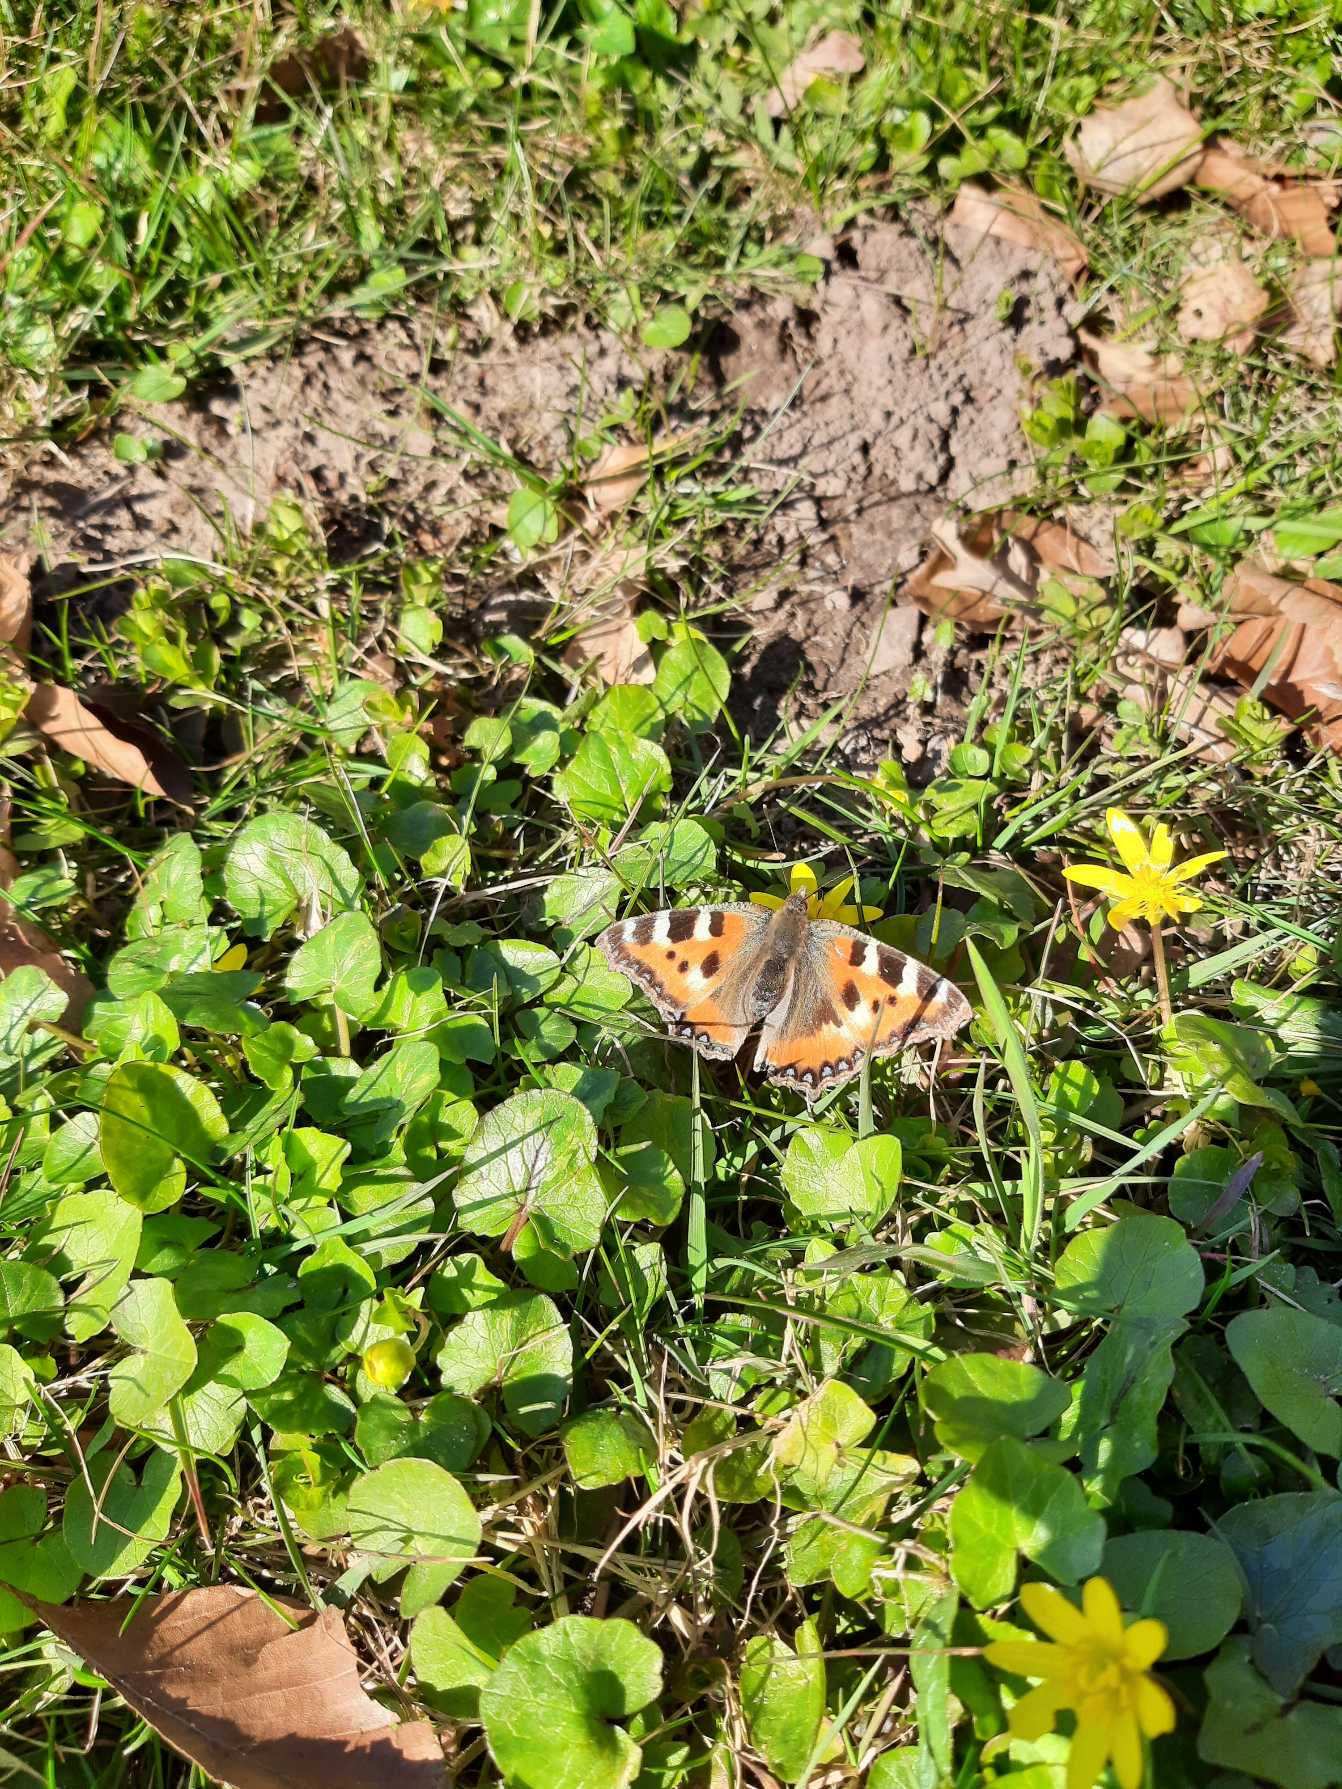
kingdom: Animalia
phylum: Arthropoda
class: Insecta
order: Lepidoptera
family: Nymphalidae
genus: Aglais
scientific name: Aglais urticae
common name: Nældens takvinge
